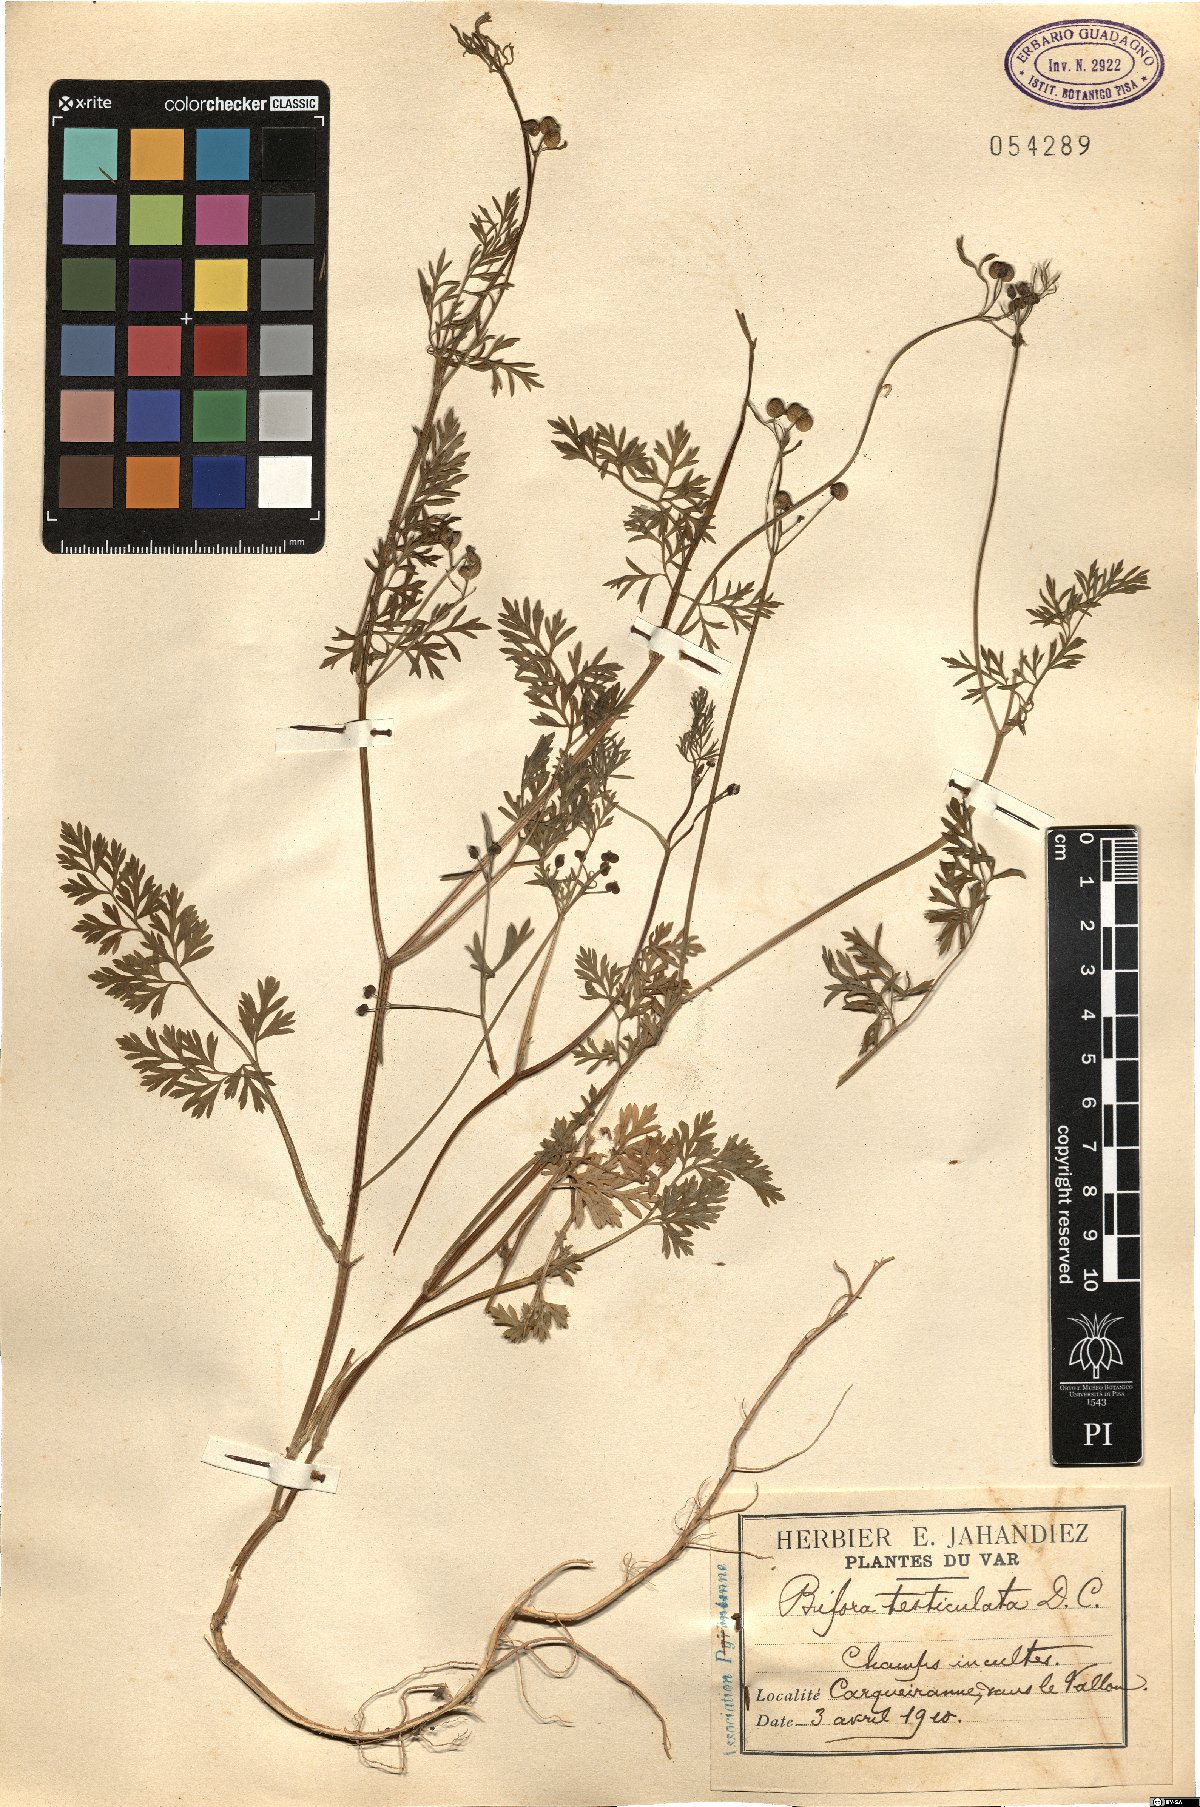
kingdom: Plantae
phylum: Tracheophyta
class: Magnoliopsida
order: Apiales
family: Apiaceae
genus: Bifora
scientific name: Bifora testiculata
